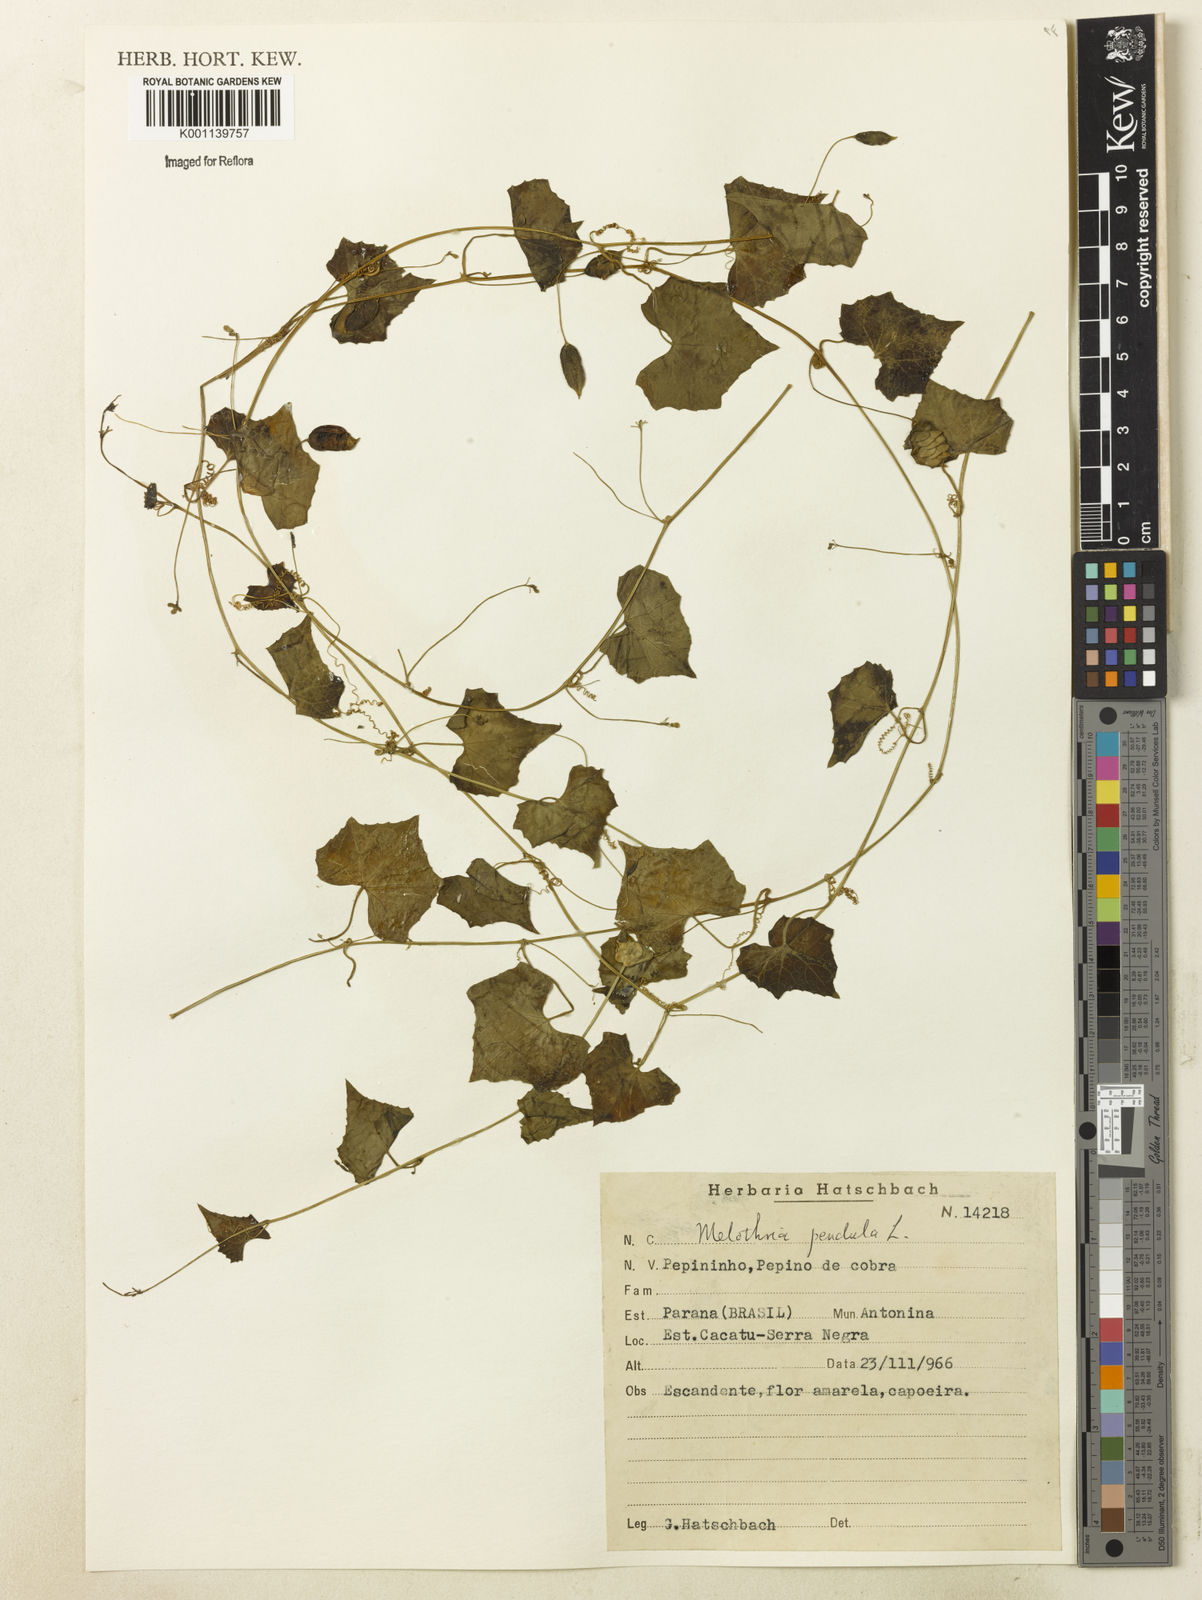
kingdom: Plantae
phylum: Tracheophyta
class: Magnoliopsida
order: Cucurbitales
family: Cucurbitaceae
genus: Melothria
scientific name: Melothria pendula
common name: Creeping-cucumber
